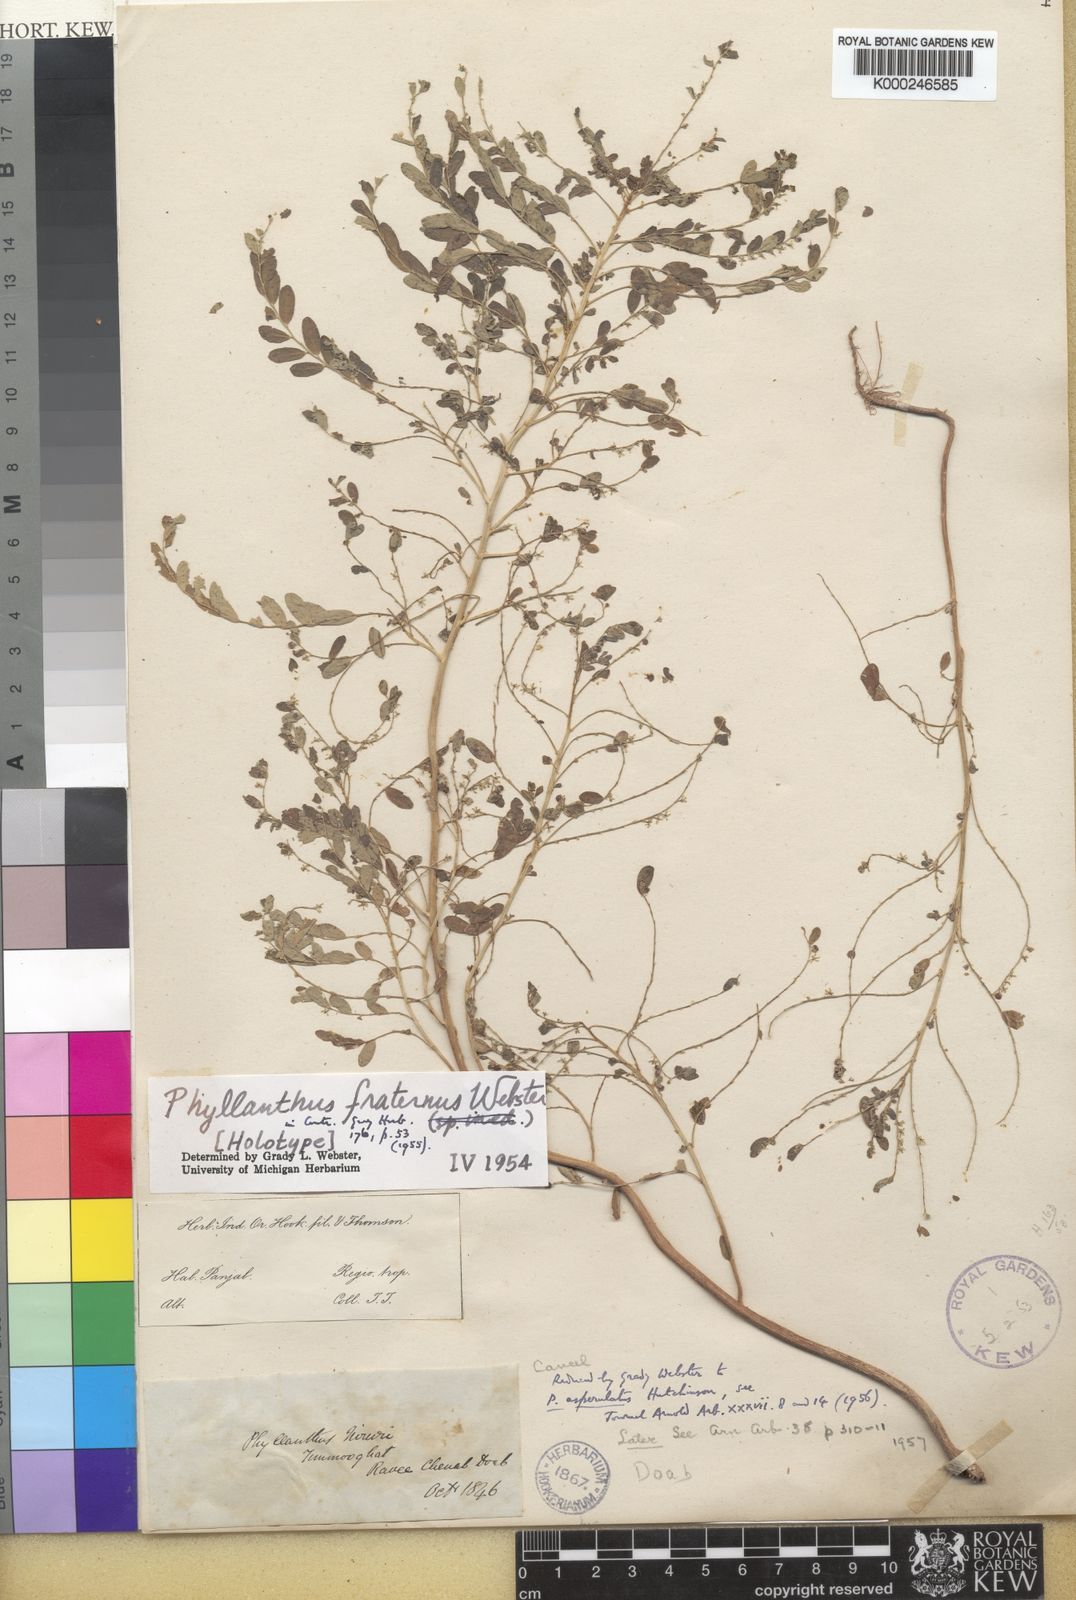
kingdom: Plantae
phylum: Tracheophyta
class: Magnoliopsida
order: Malpighiales
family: Phyllanthaceae
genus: Phyllanthus
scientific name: Phyllanthus fraternus
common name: Gulf leaf-flower
